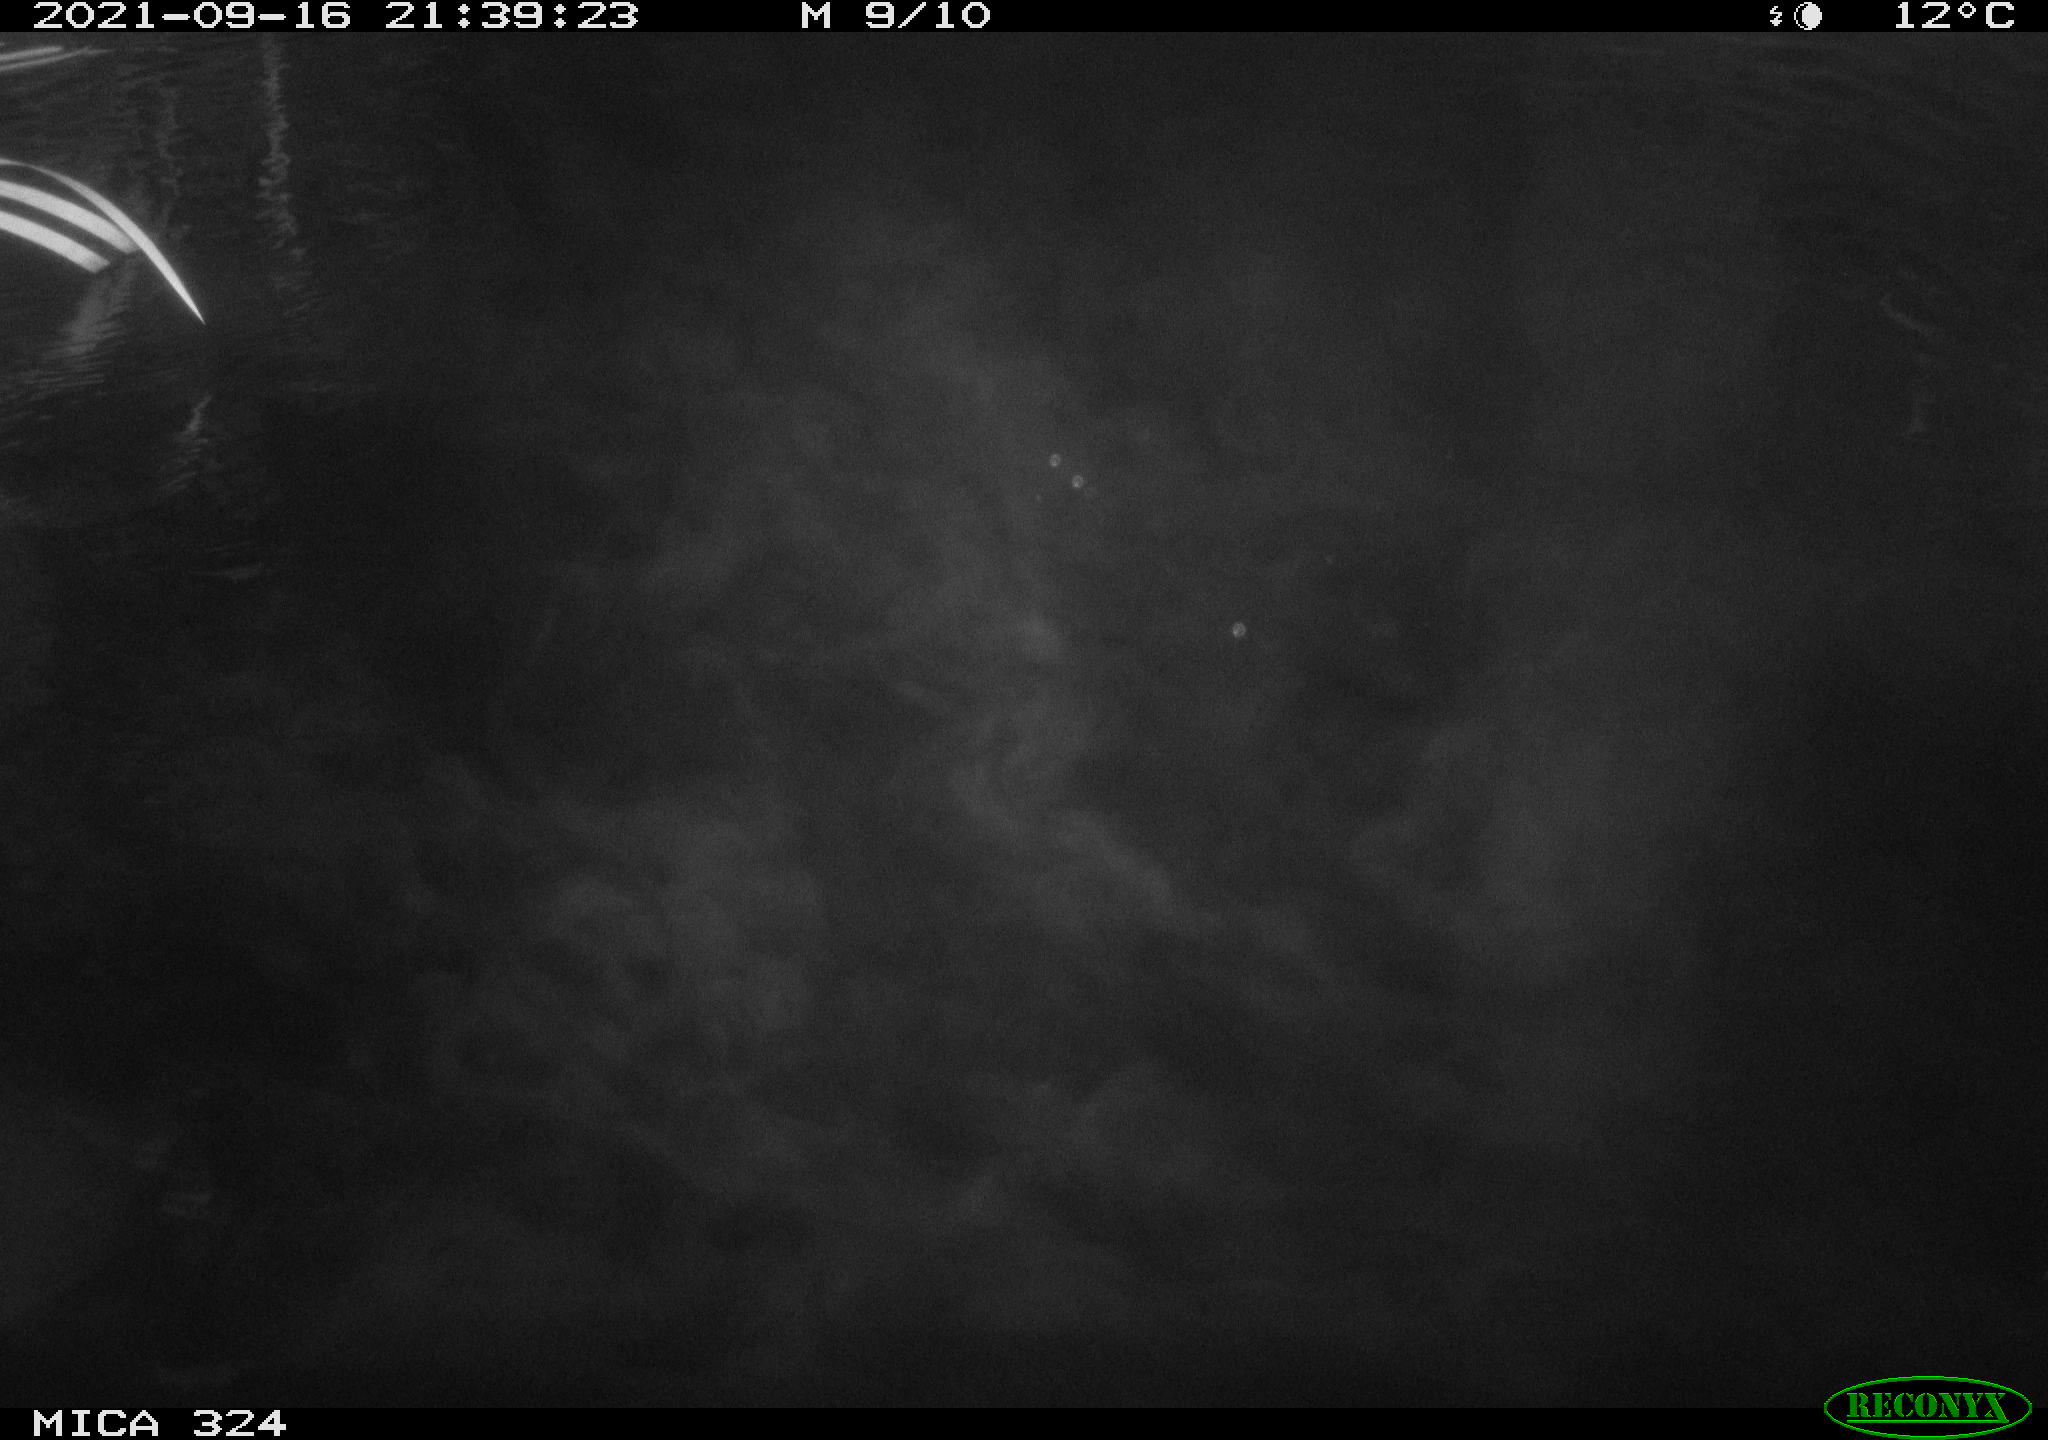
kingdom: Animalia
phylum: Chordata
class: Mammalia
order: Rodentia
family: Cricetidae
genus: Ondatra
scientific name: Ondatra zibethicus
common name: Muskrat
